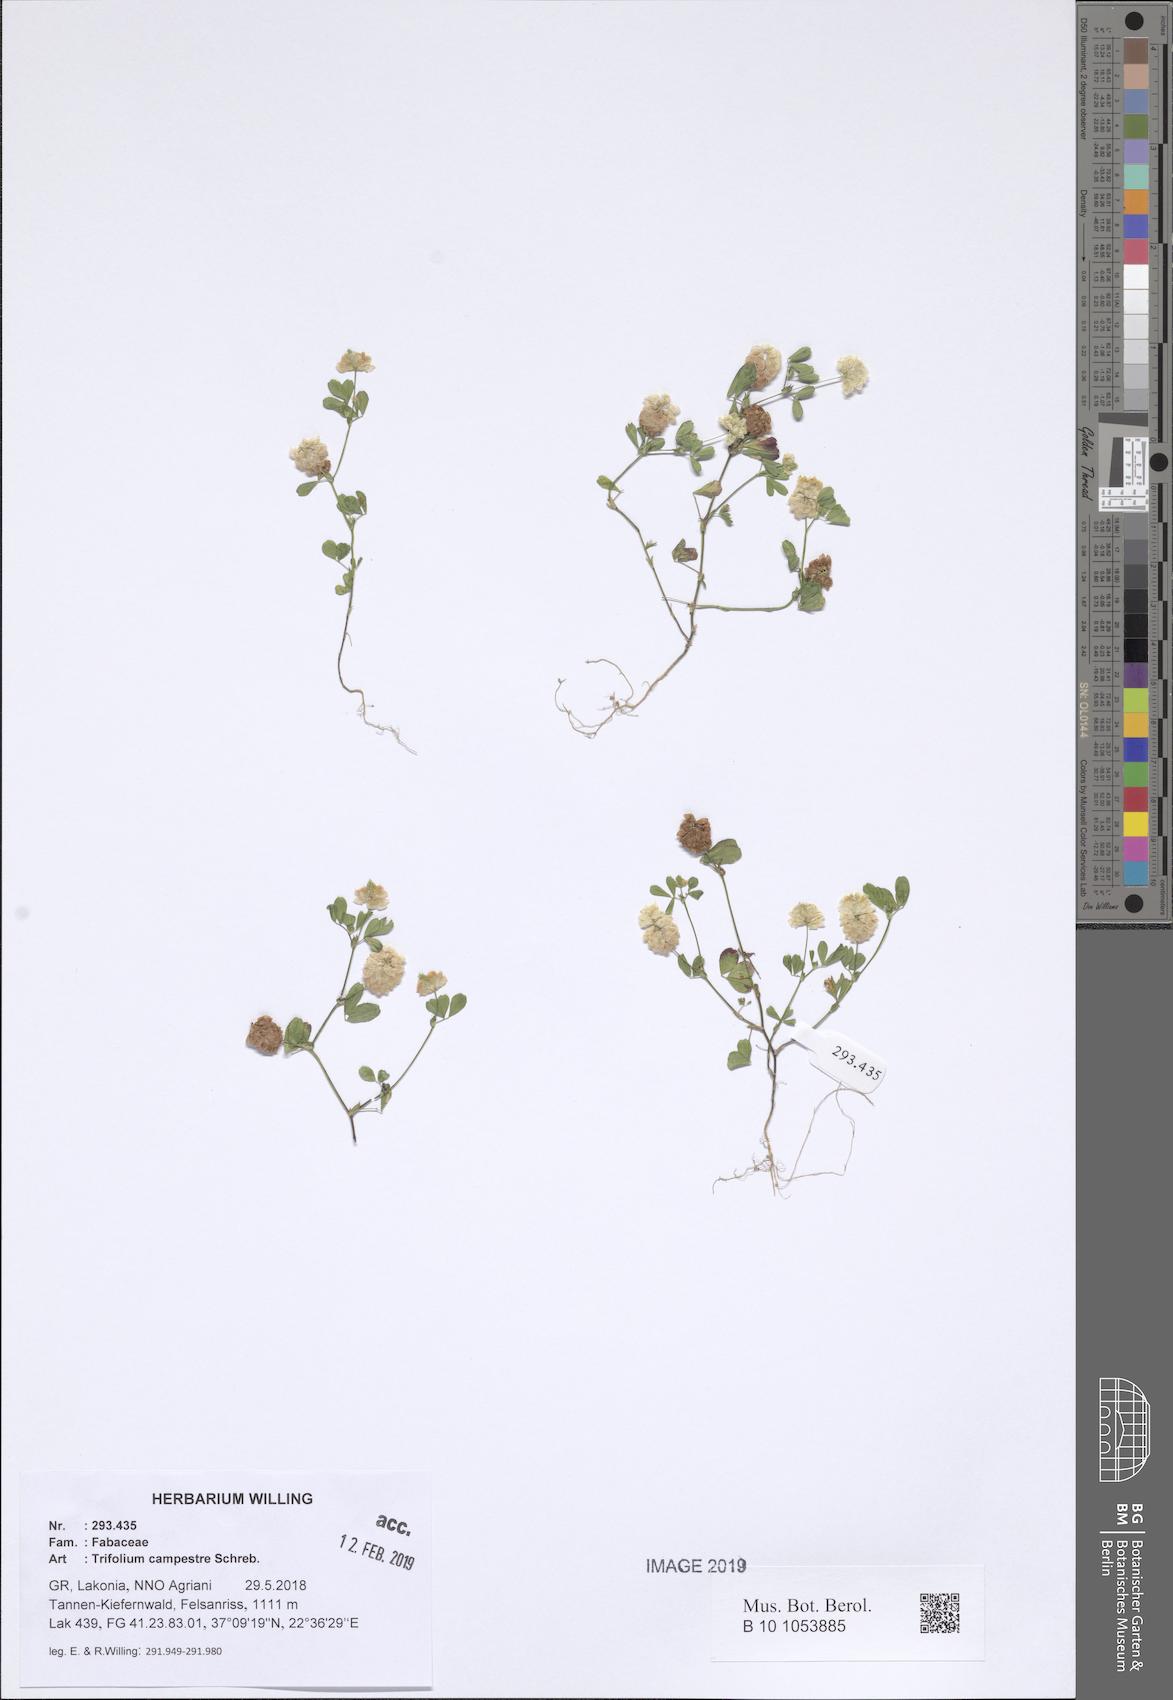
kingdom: Plantae
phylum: Tracheophyta
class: Magnoliopsida
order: Fabales
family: Fabaceae
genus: Trifolium
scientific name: Trifolium campestre
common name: Field clover
